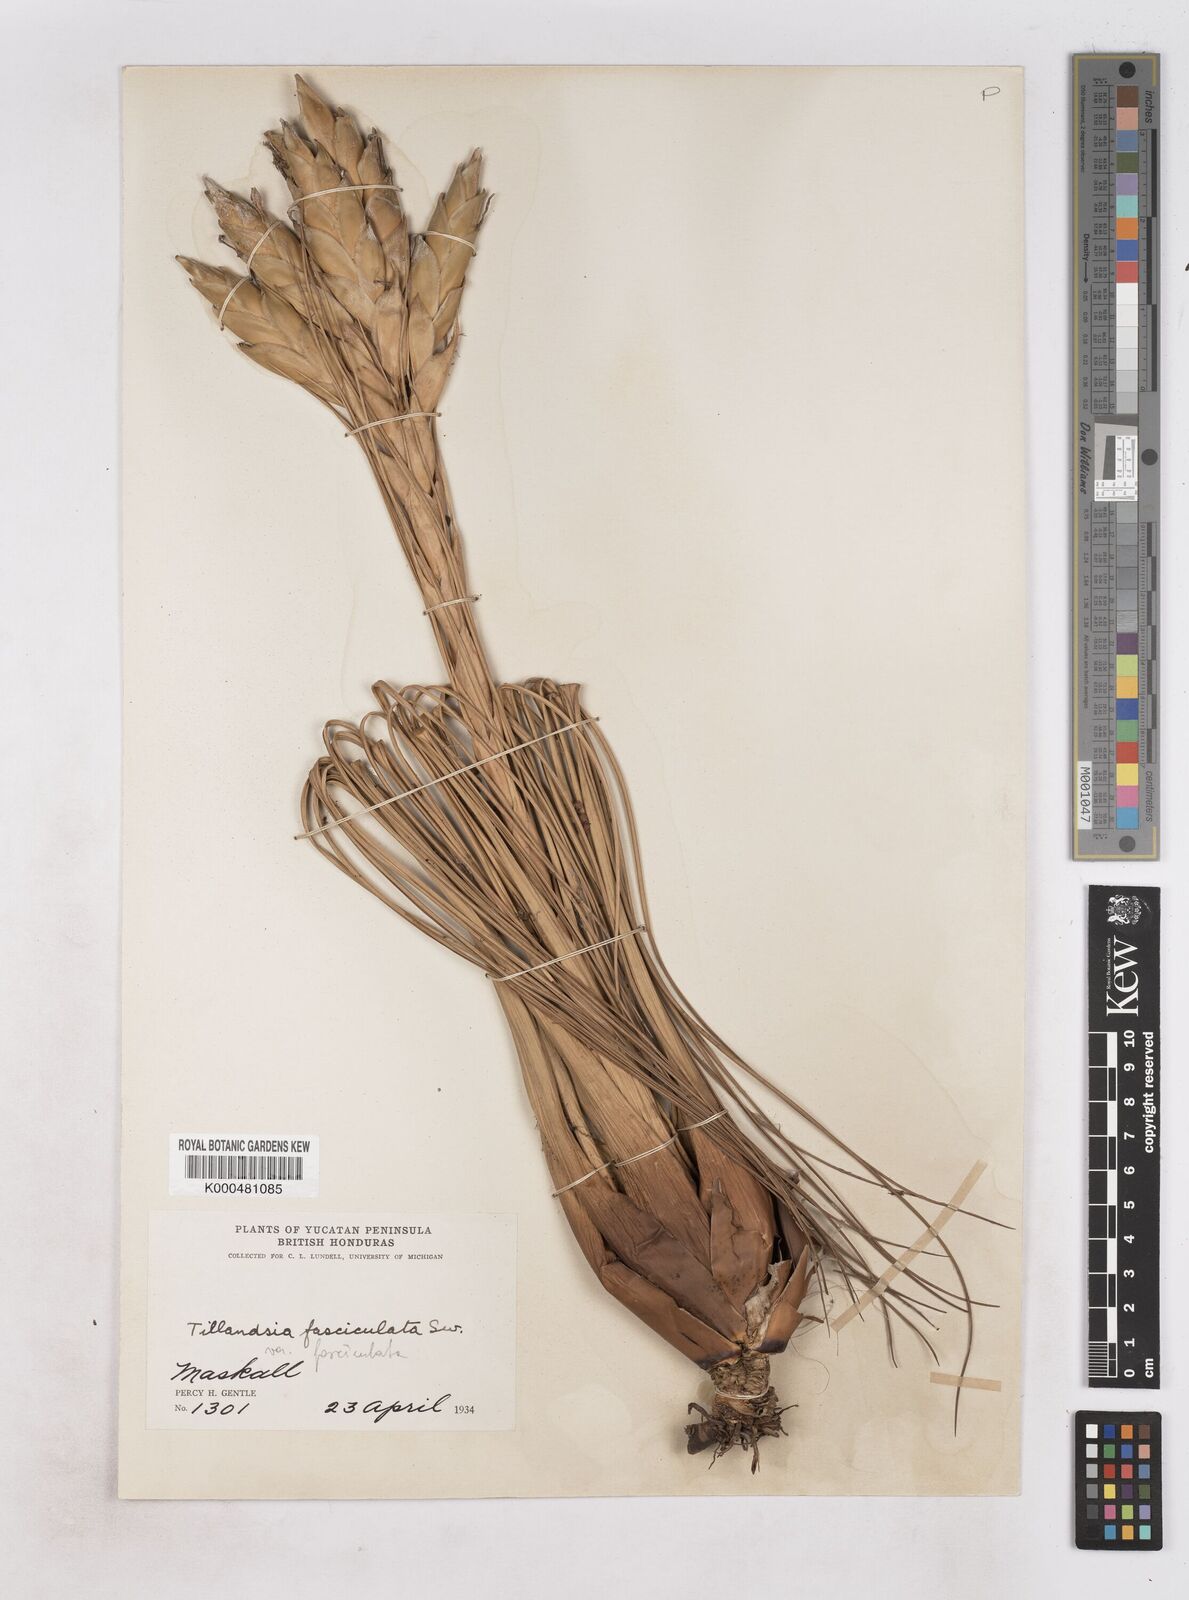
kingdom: Plantae
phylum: Tracheophyta
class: Liliopsida
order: Poales
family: Bromeliaceae
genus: Tillandsia
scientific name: Tillandsia fasciculata
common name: Giant airplant
